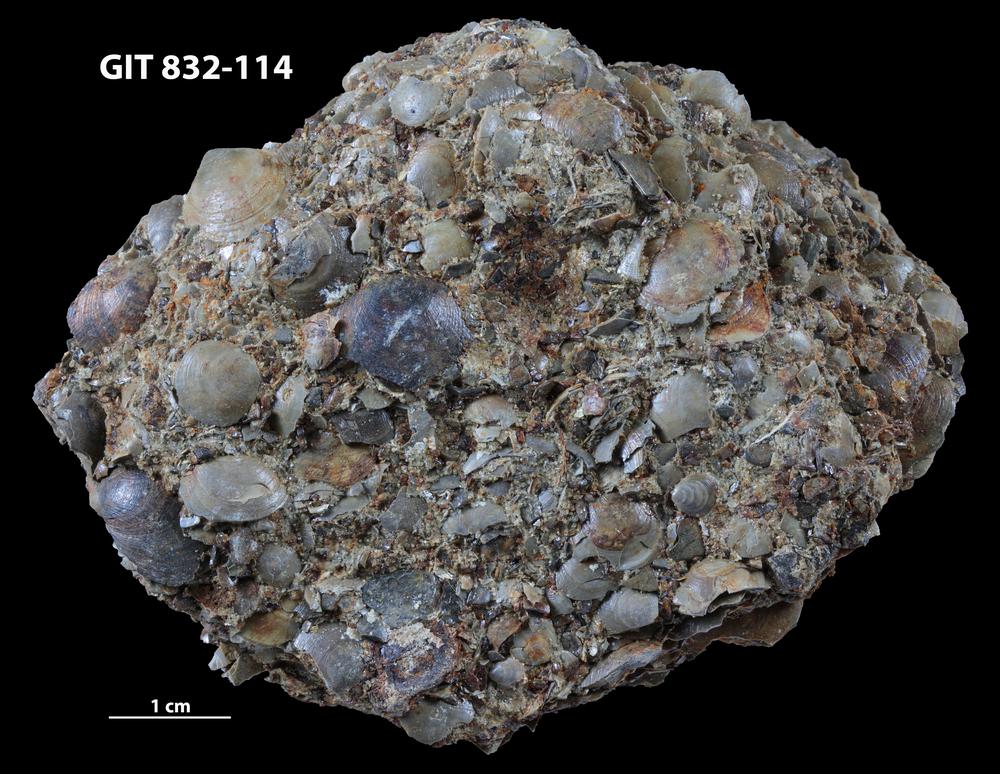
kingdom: Animalia
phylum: Brachiopoda
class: Lingulata
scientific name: Lingulata
